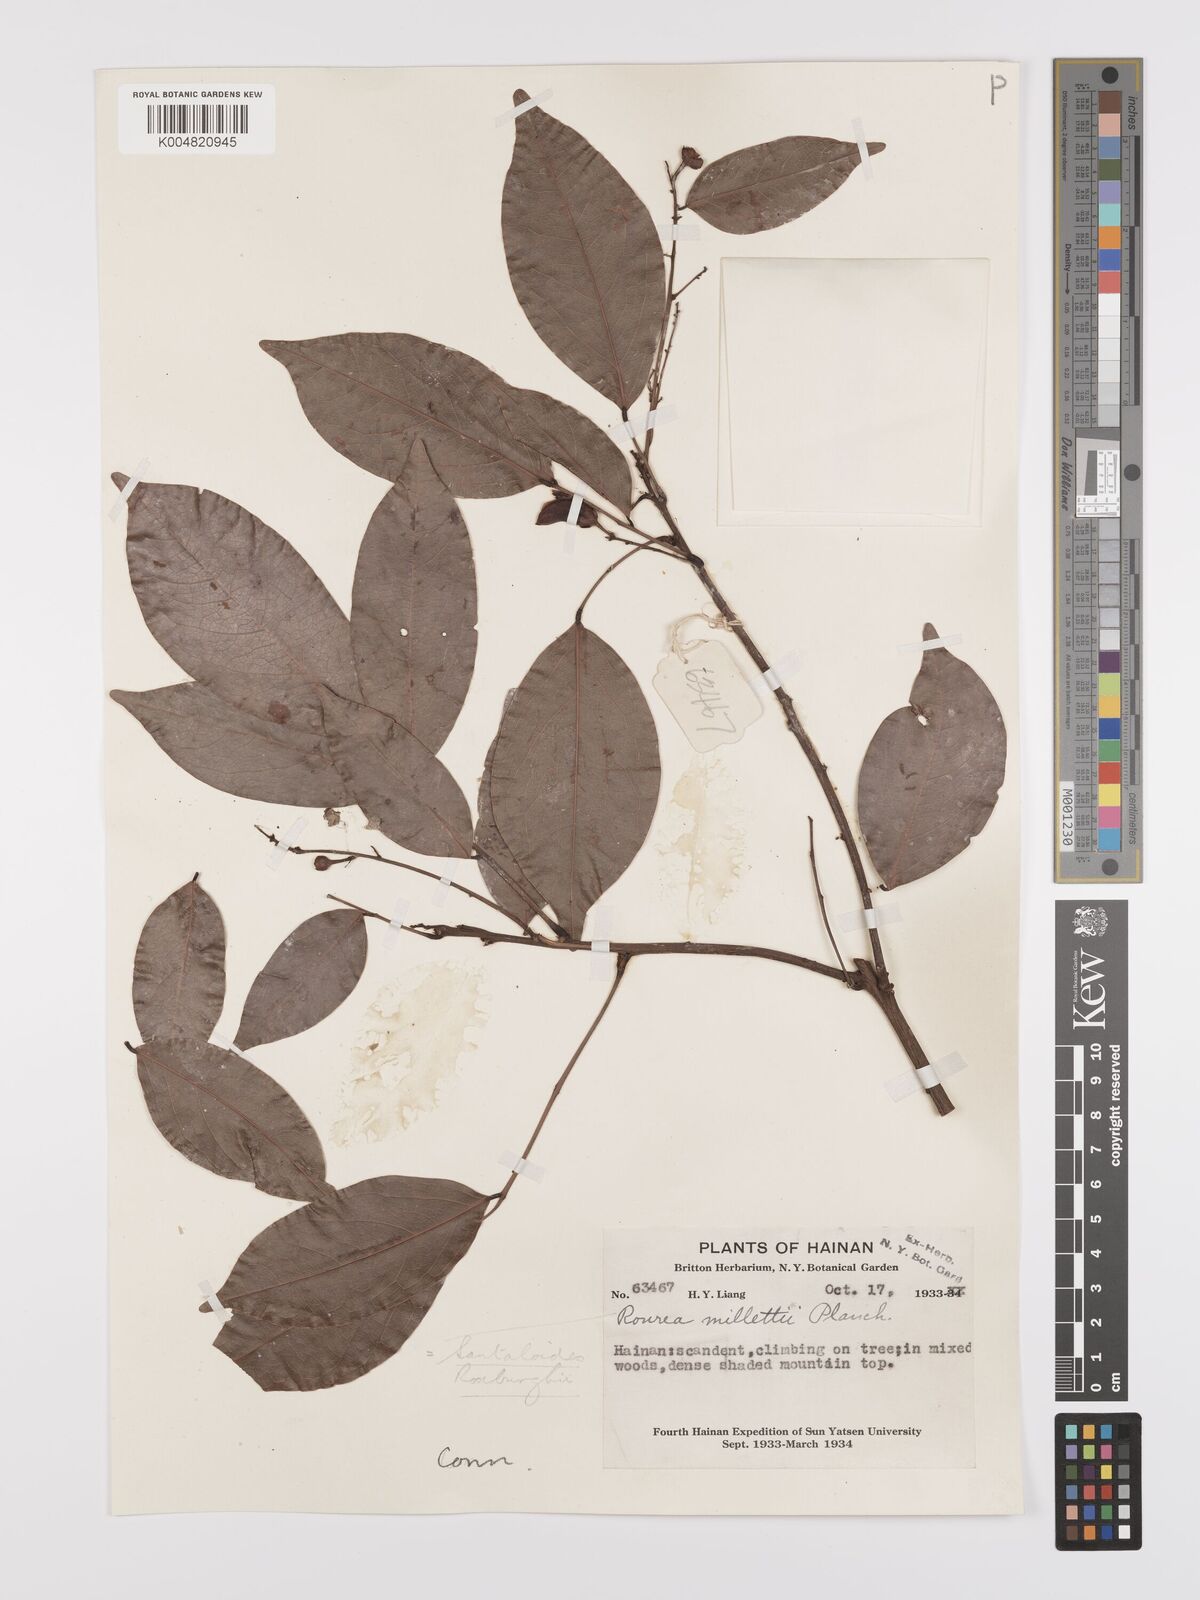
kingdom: Plantae
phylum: Tracheophyta
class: Magnoliopsida
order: Oxalidales
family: Connaraceae
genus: Rourea
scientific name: Rourea
